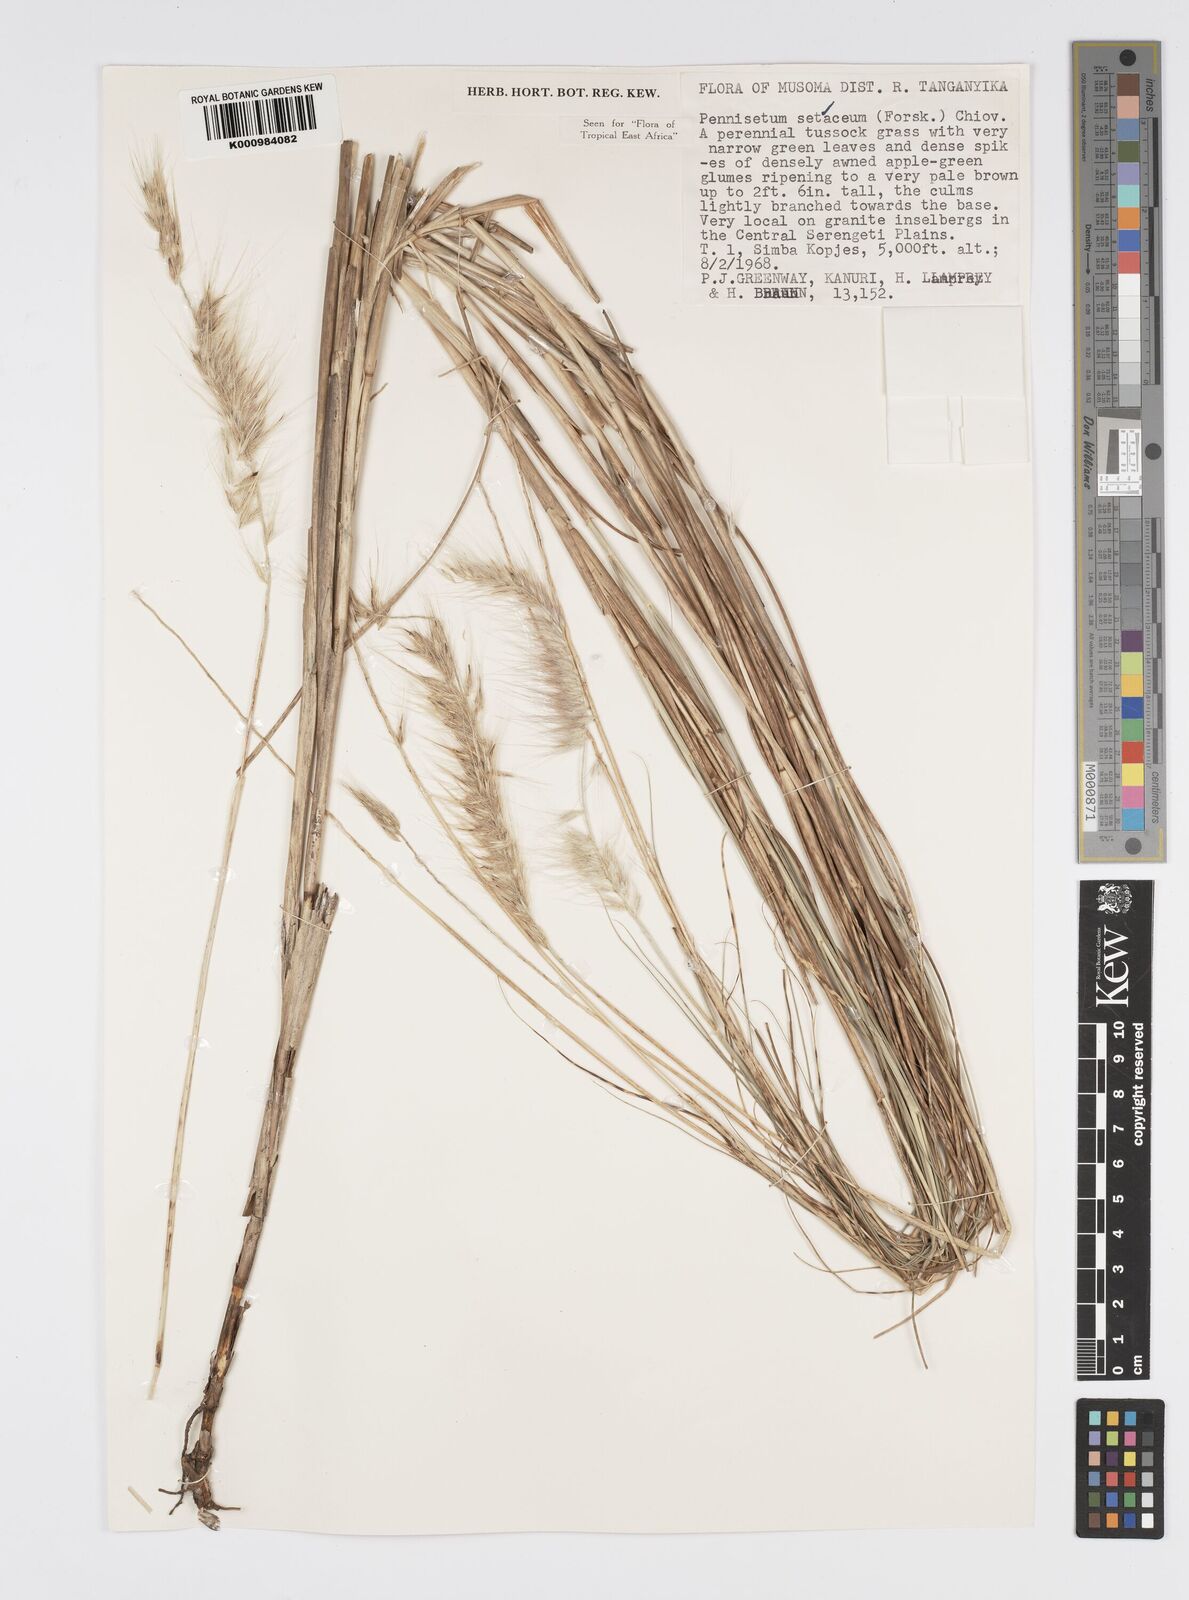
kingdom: Plantae
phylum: Tracheophyta
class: Liliopsida
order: Poales
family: Poaceae
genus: Cenchrus
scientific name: Cenchrus setaceus
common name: Crimson fountaingrass
